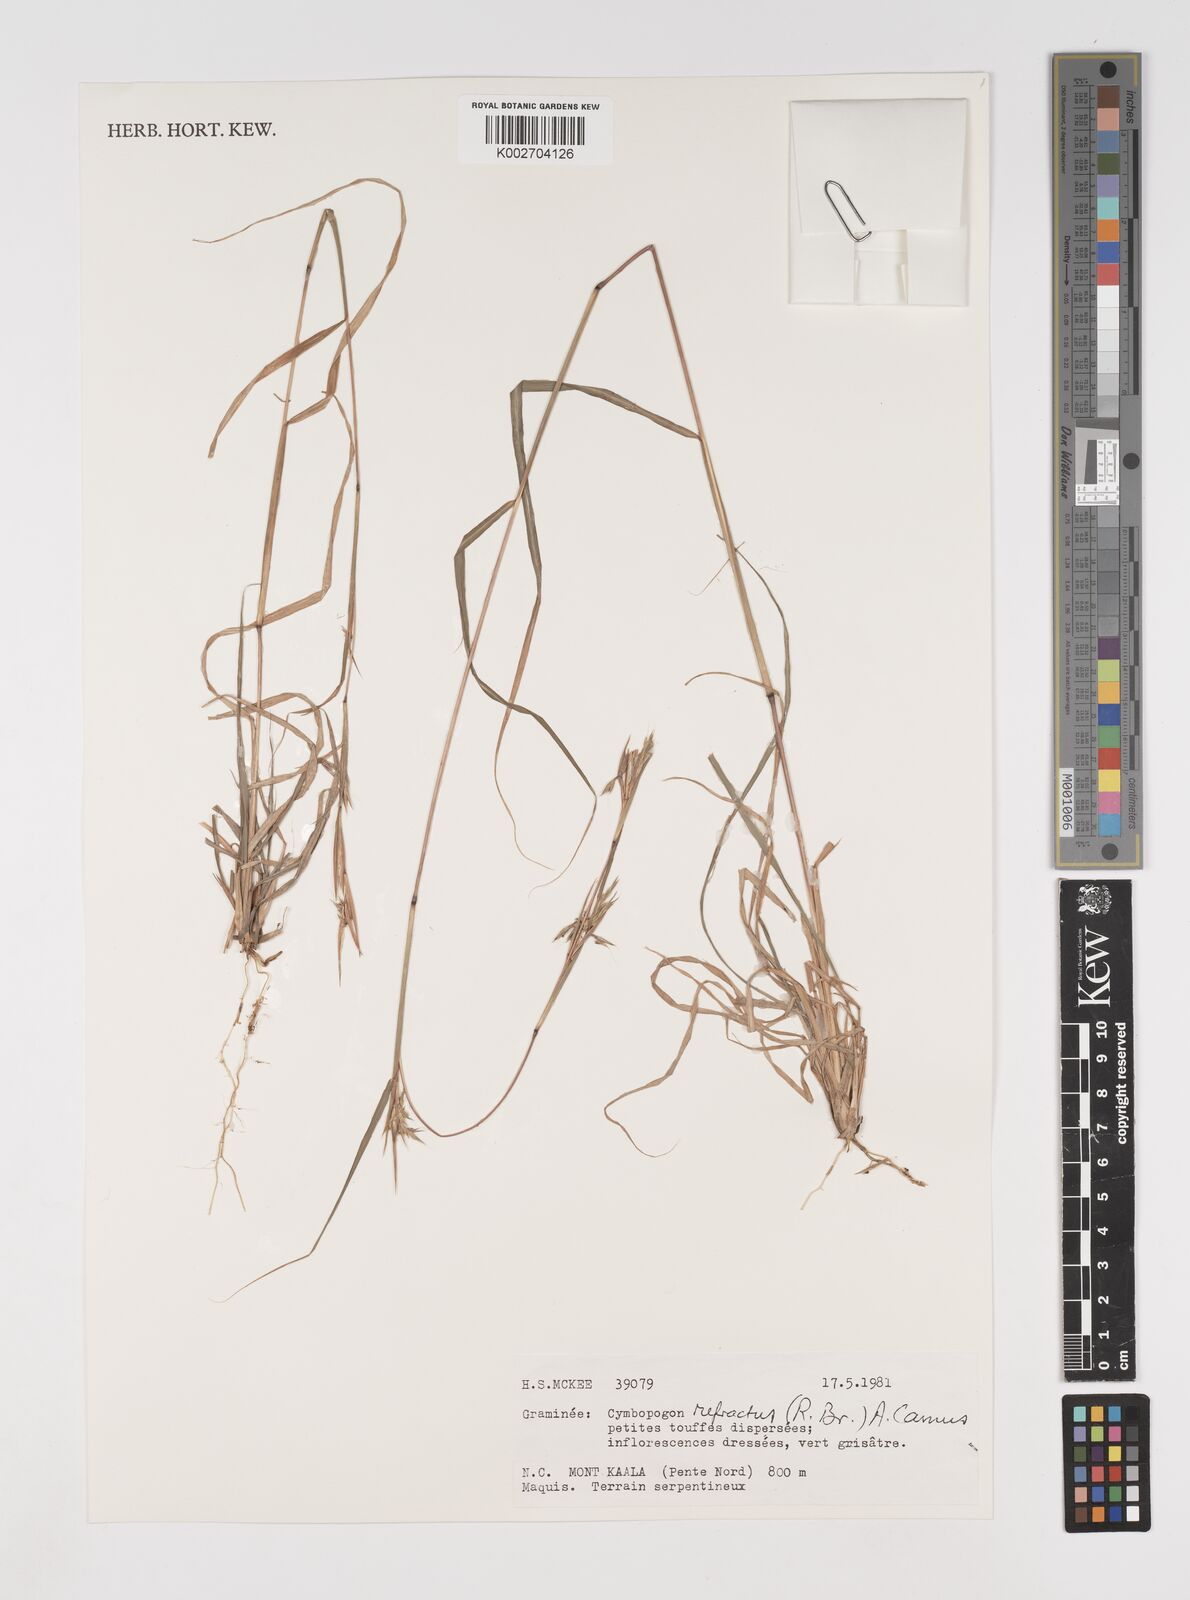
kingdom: Plantae
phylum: Tracheophyta
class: Liliopsida
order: Poales
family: Poaceae
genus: Cymbopogon
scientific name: Cymbopogon refractus
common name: Barbwire grass
